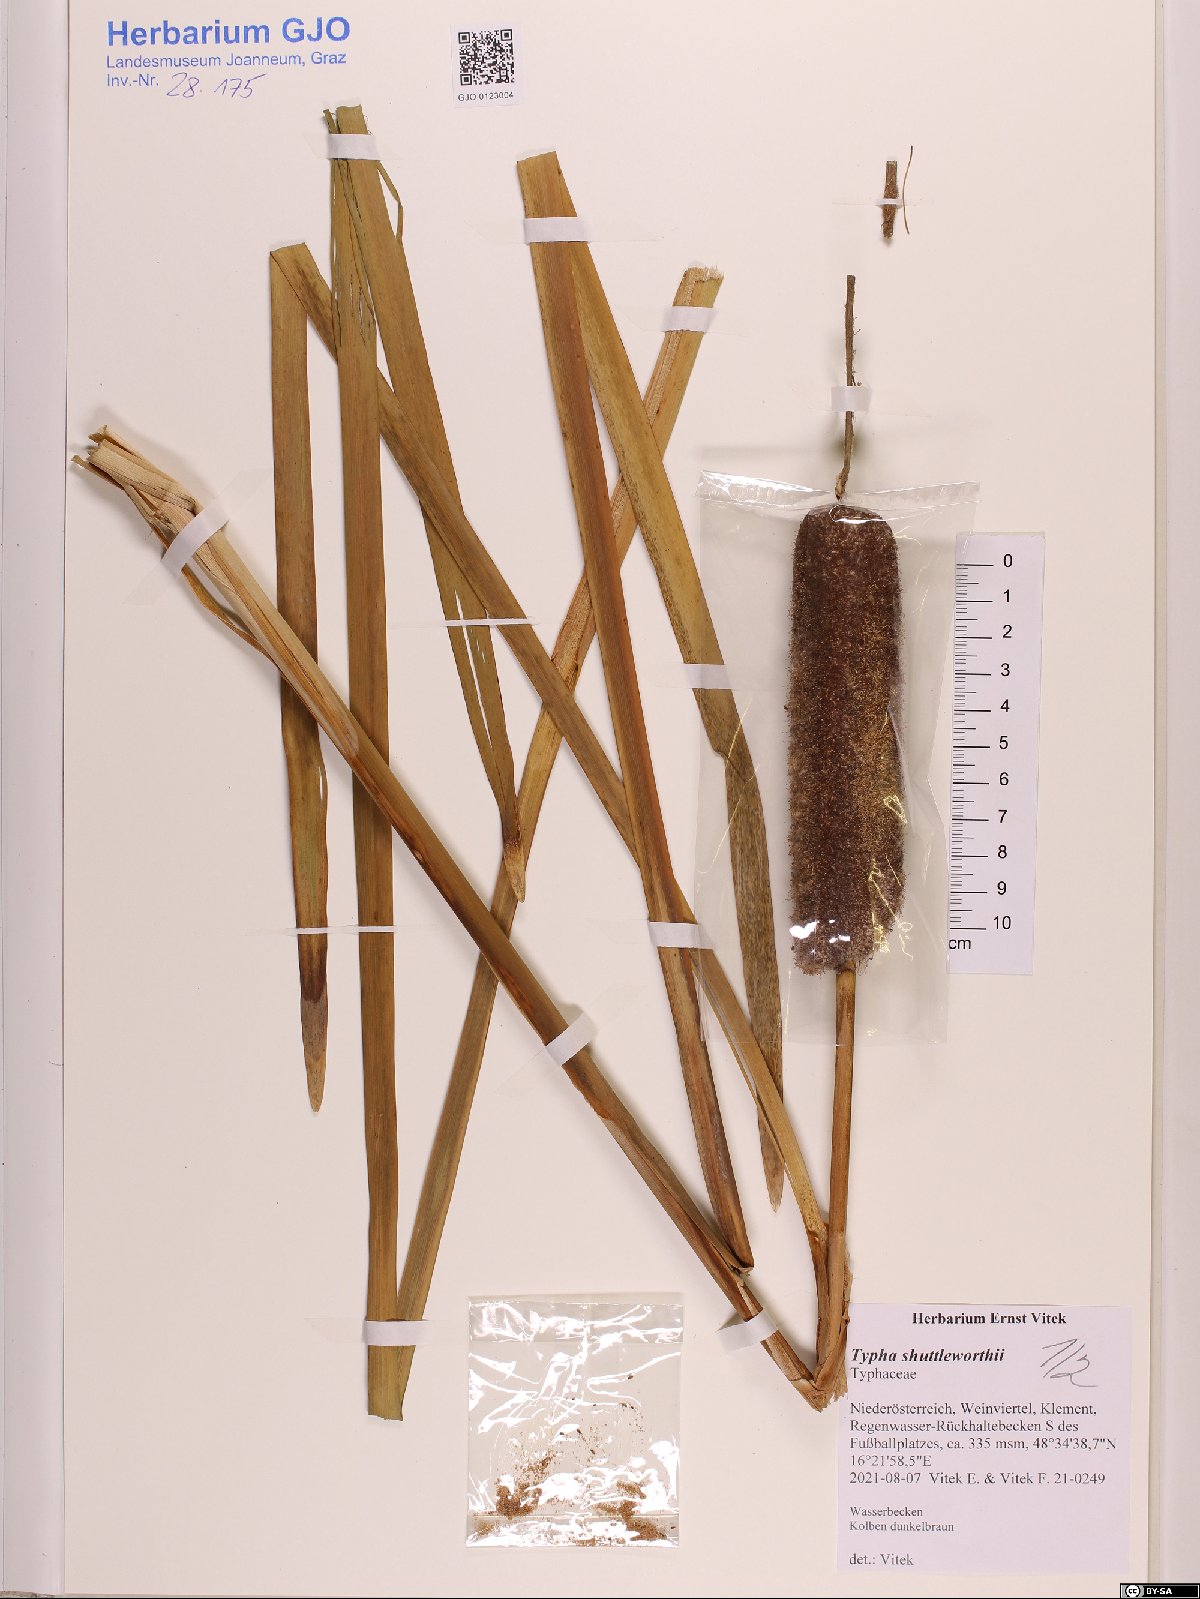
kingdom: Plantae
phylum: Tracheophyta
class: Liliopsida
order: Poales
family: Typhaceae
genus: Typha
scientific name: Typha shuttleworthii
